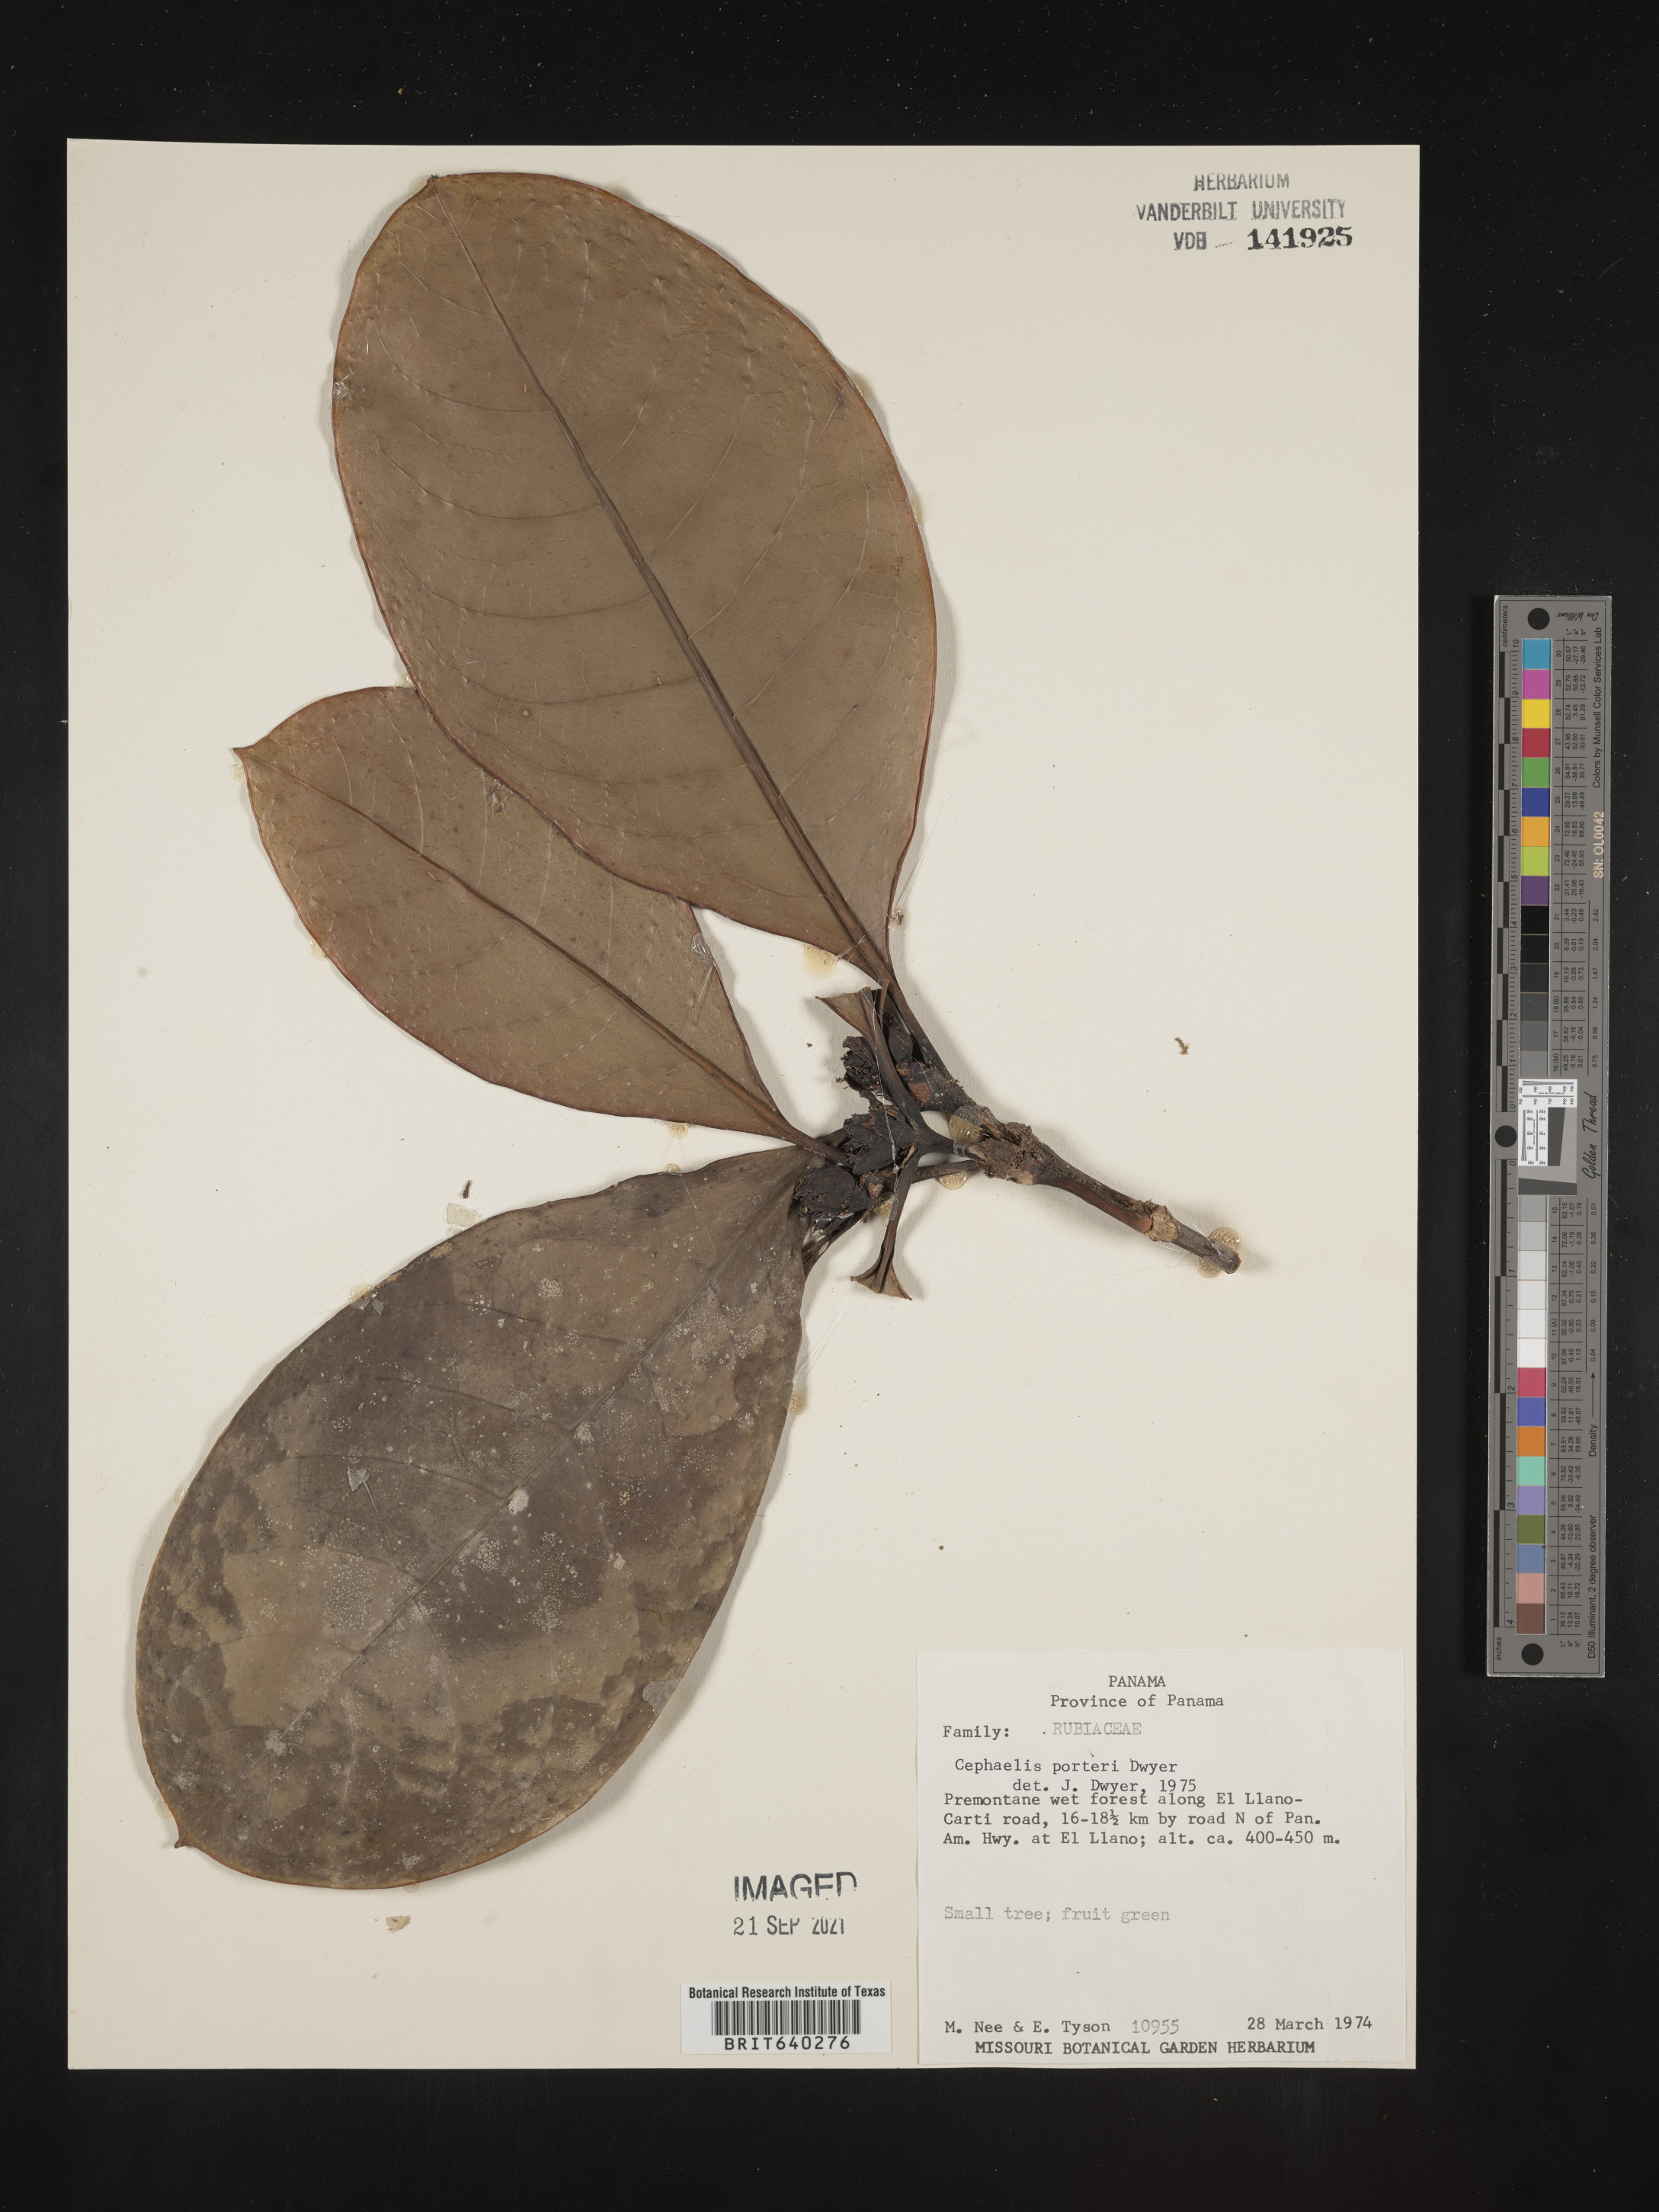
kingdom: Plantae
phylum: Tracheophyta
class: Magnoliopsida
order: Gentianales
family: Rubiaceae
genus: Psychotria
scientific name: Psychotria
